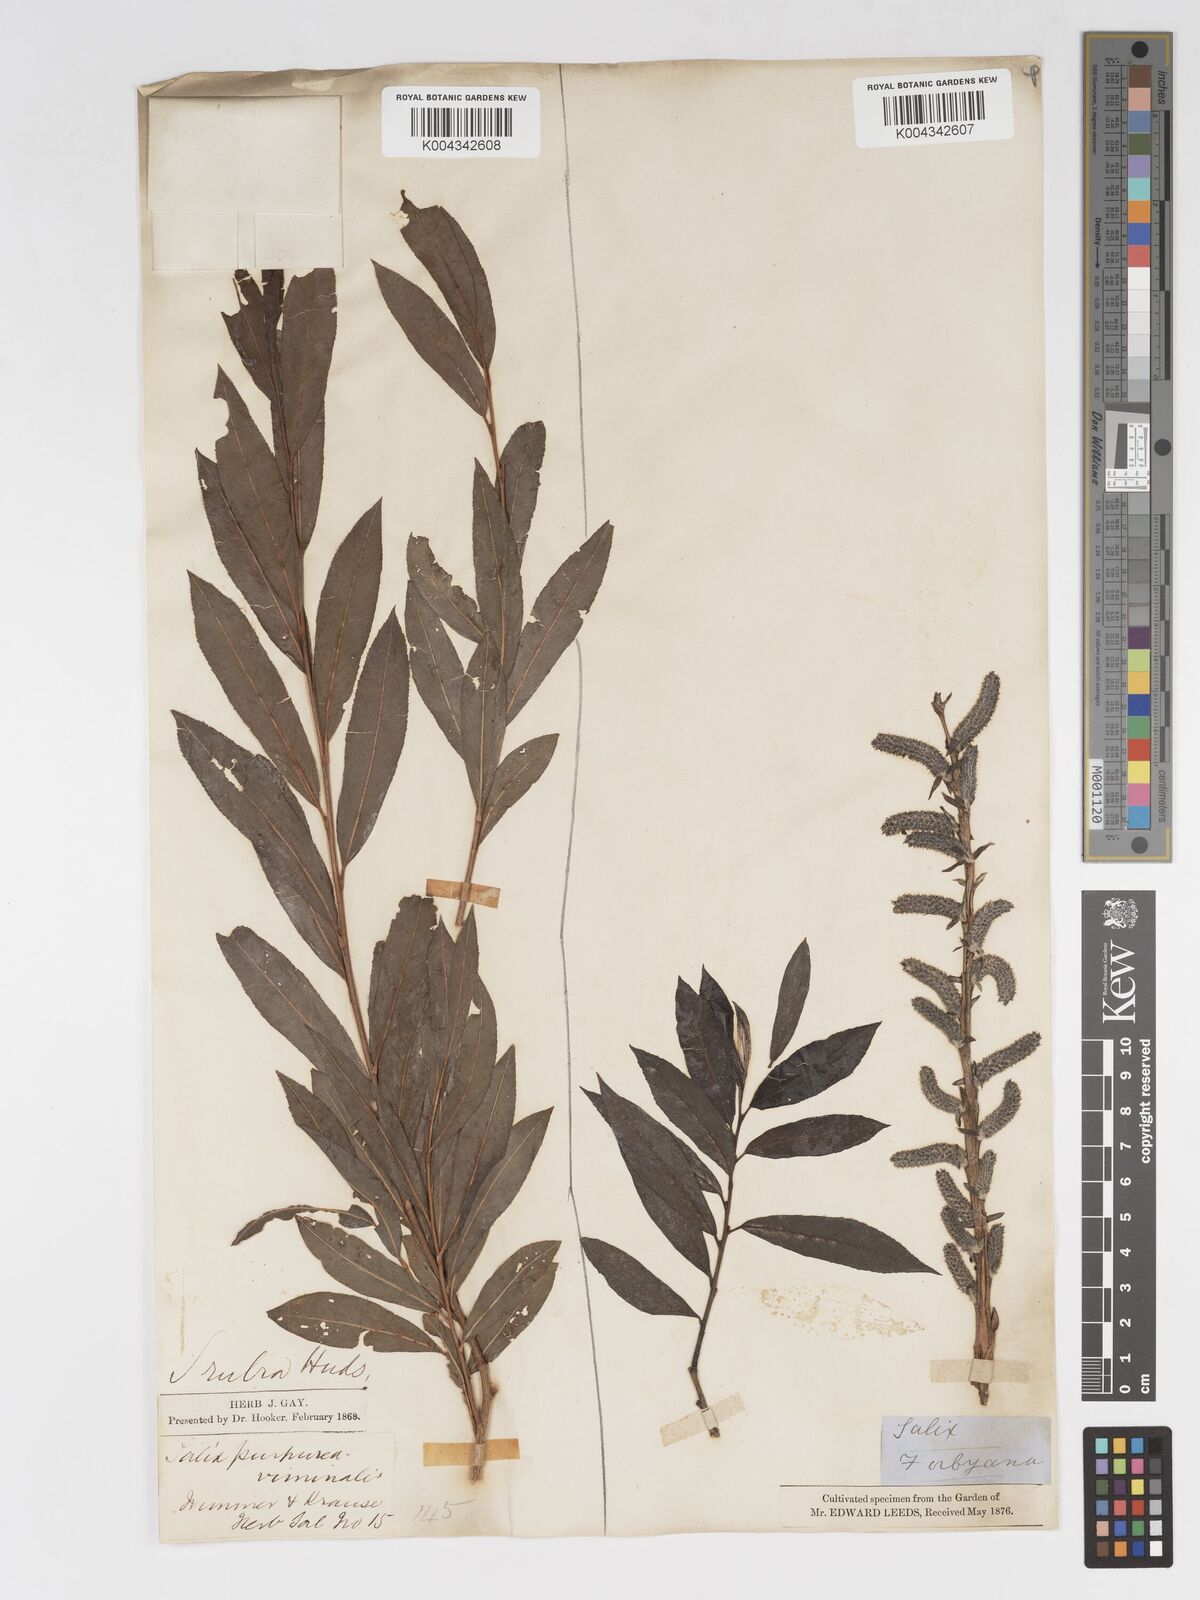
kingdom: Plantae
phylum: Tracheophyta
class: Magnoliopsida
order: Malpighiales
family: Salicaceae
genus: Salix
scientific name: Salix cinerea
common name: Common sallow
